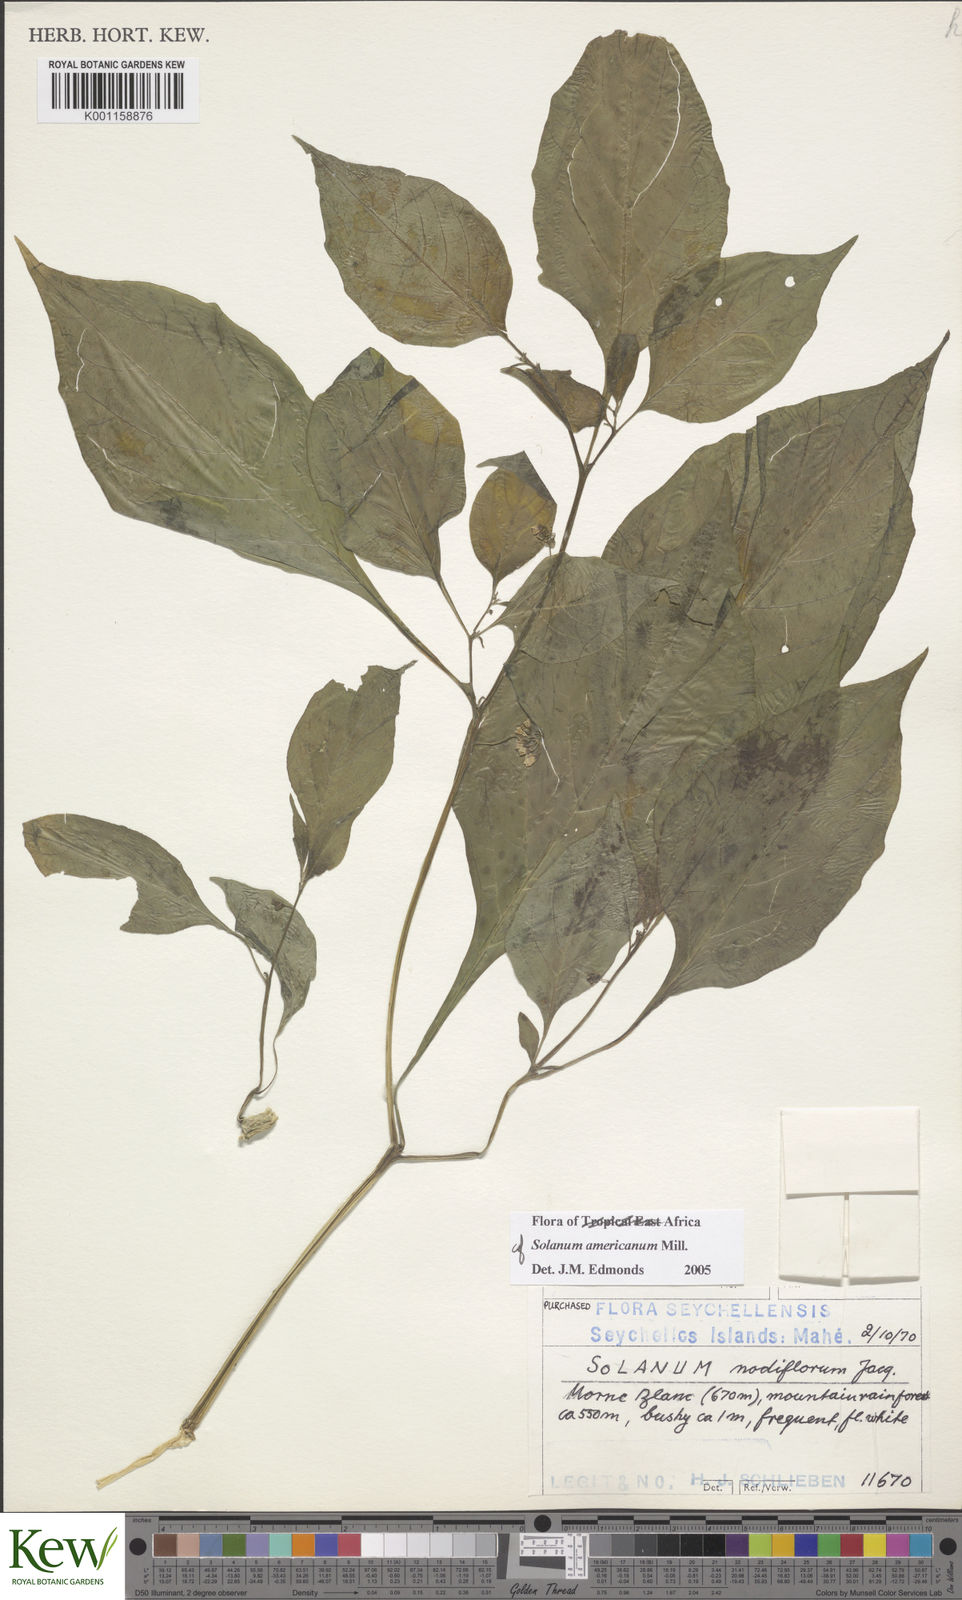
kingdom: Plantae
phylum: Tracheophyta
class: Magnoliopsida
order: Solanales
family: Solanaceae
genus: Solanum
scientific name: Solanum scabrum
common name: Garden-huckleberry
